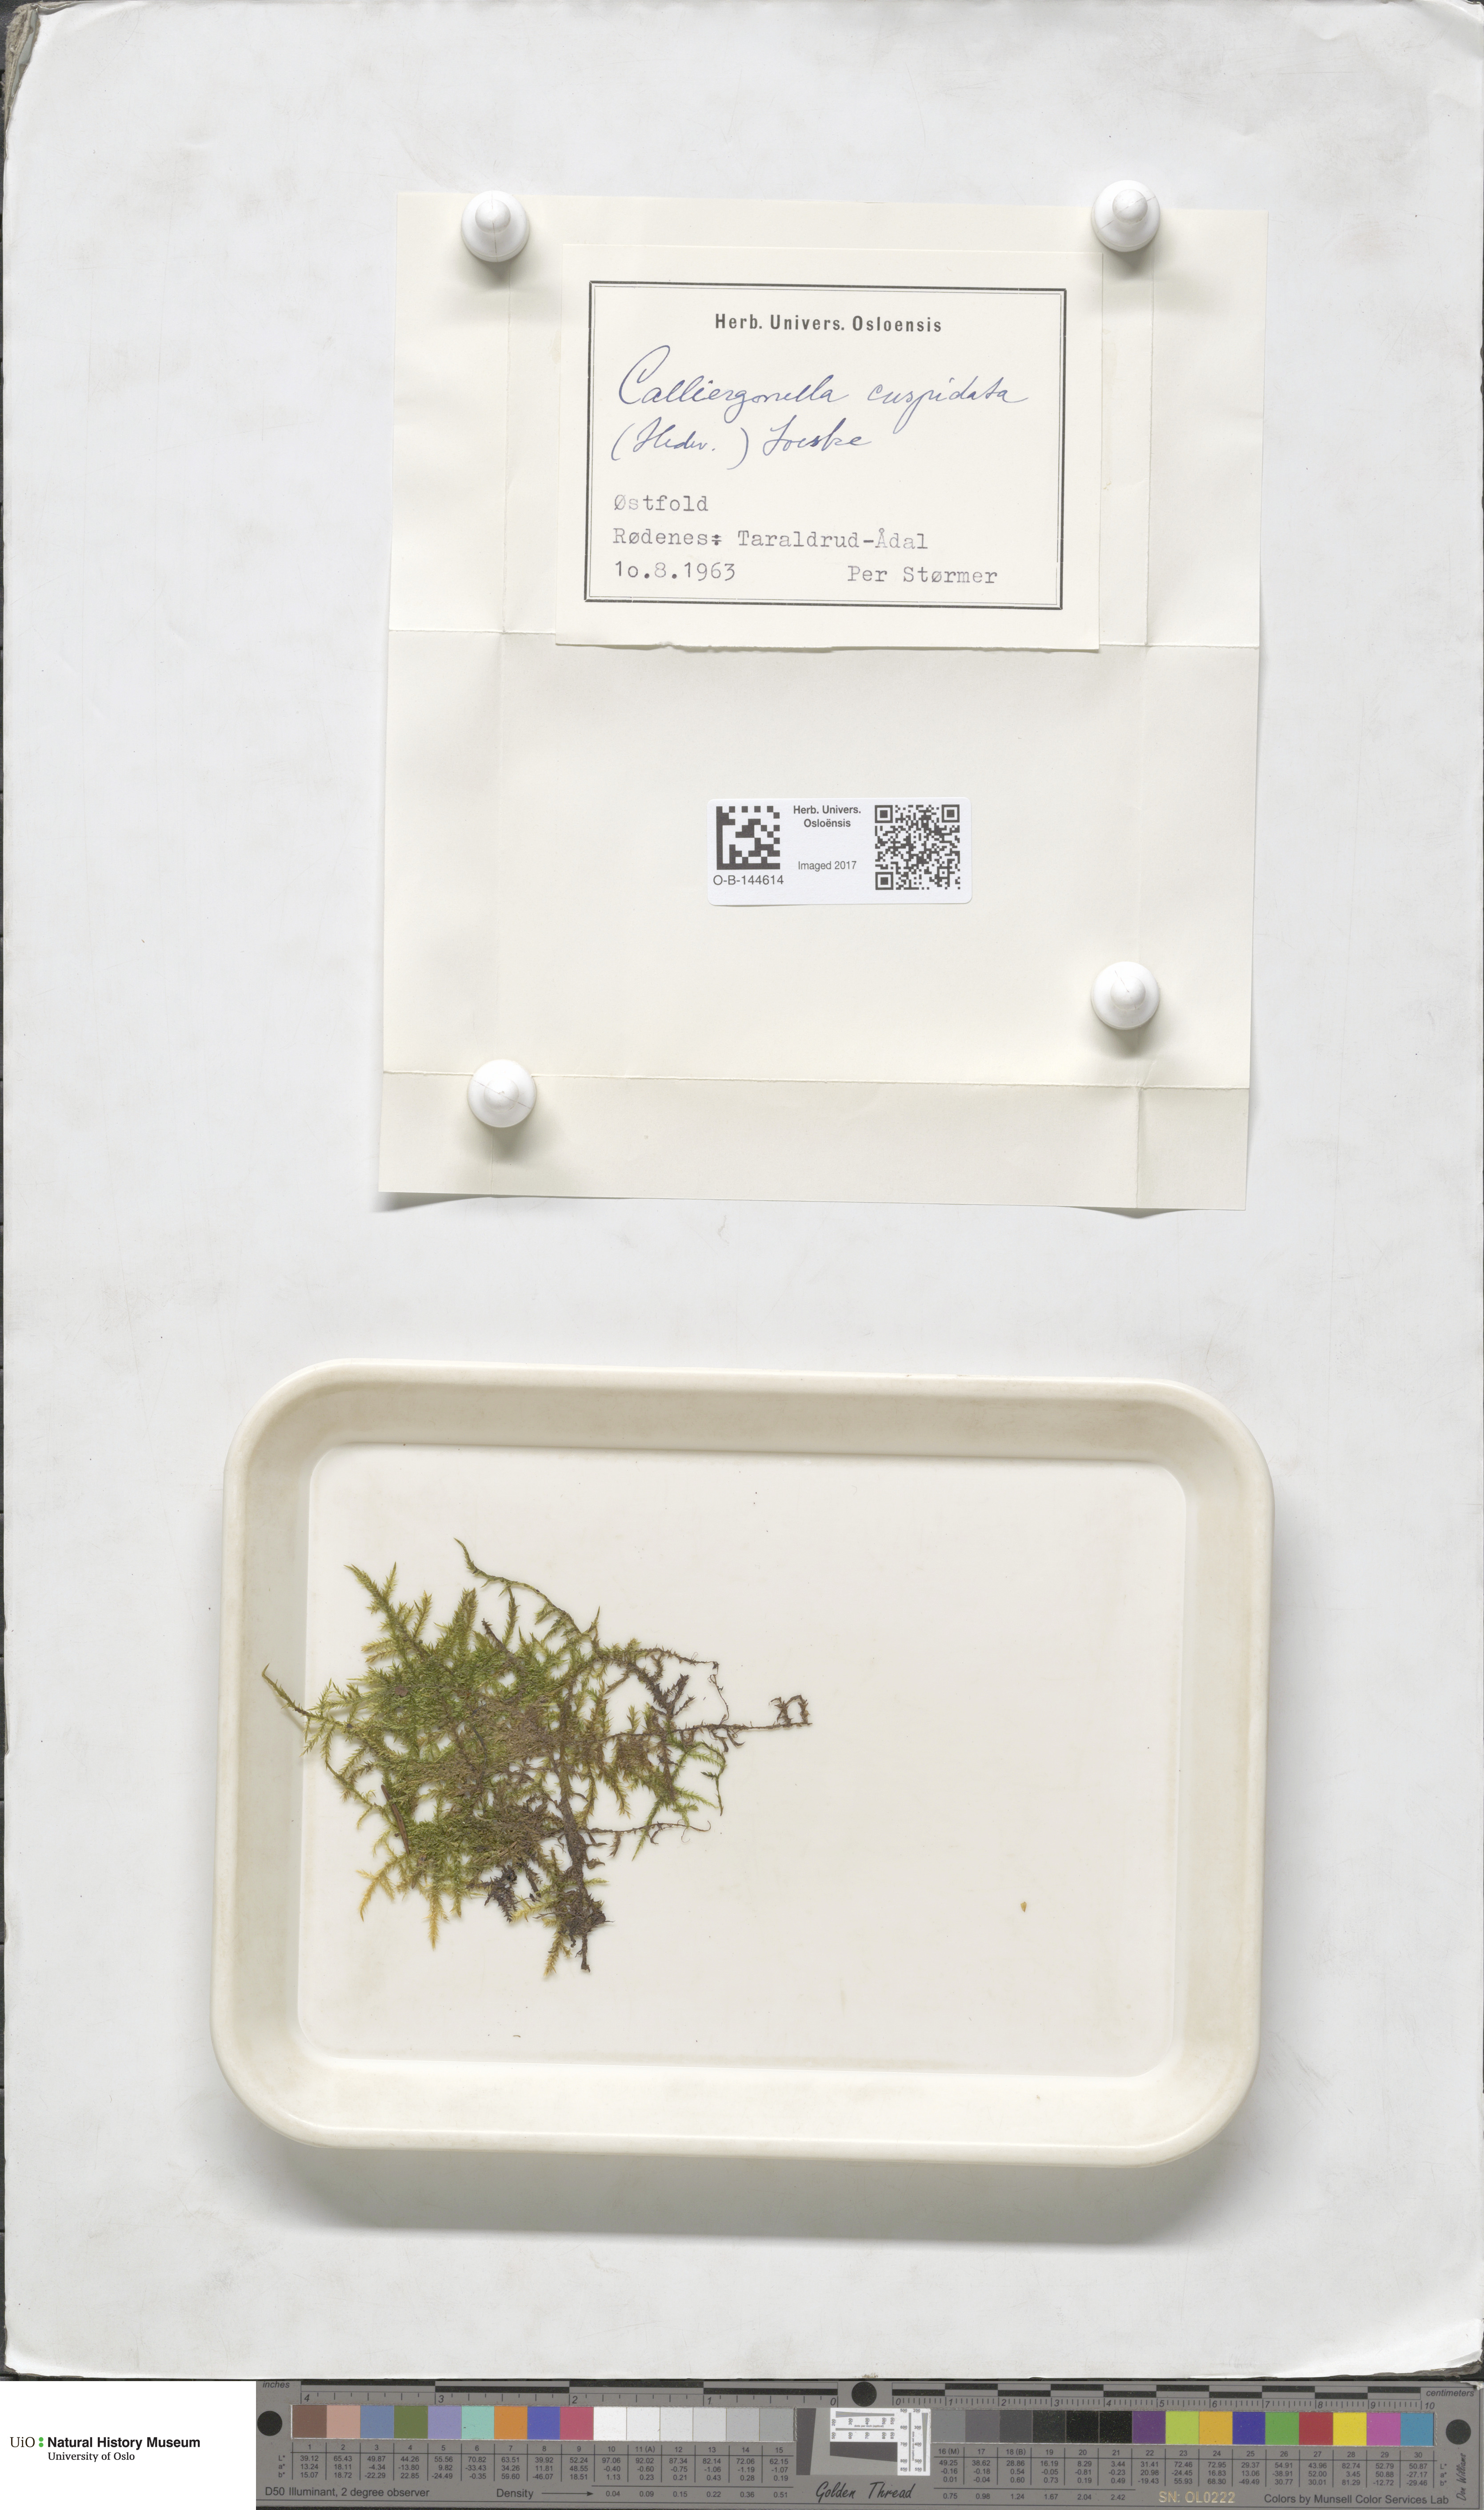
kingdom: Plantae
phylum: Bryophyta
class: Bryopsida
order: Hypnales
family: Pylaisiaceae
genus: Calliergonella
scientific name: Calliergonella cuspidata
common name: Common large wetland moss
